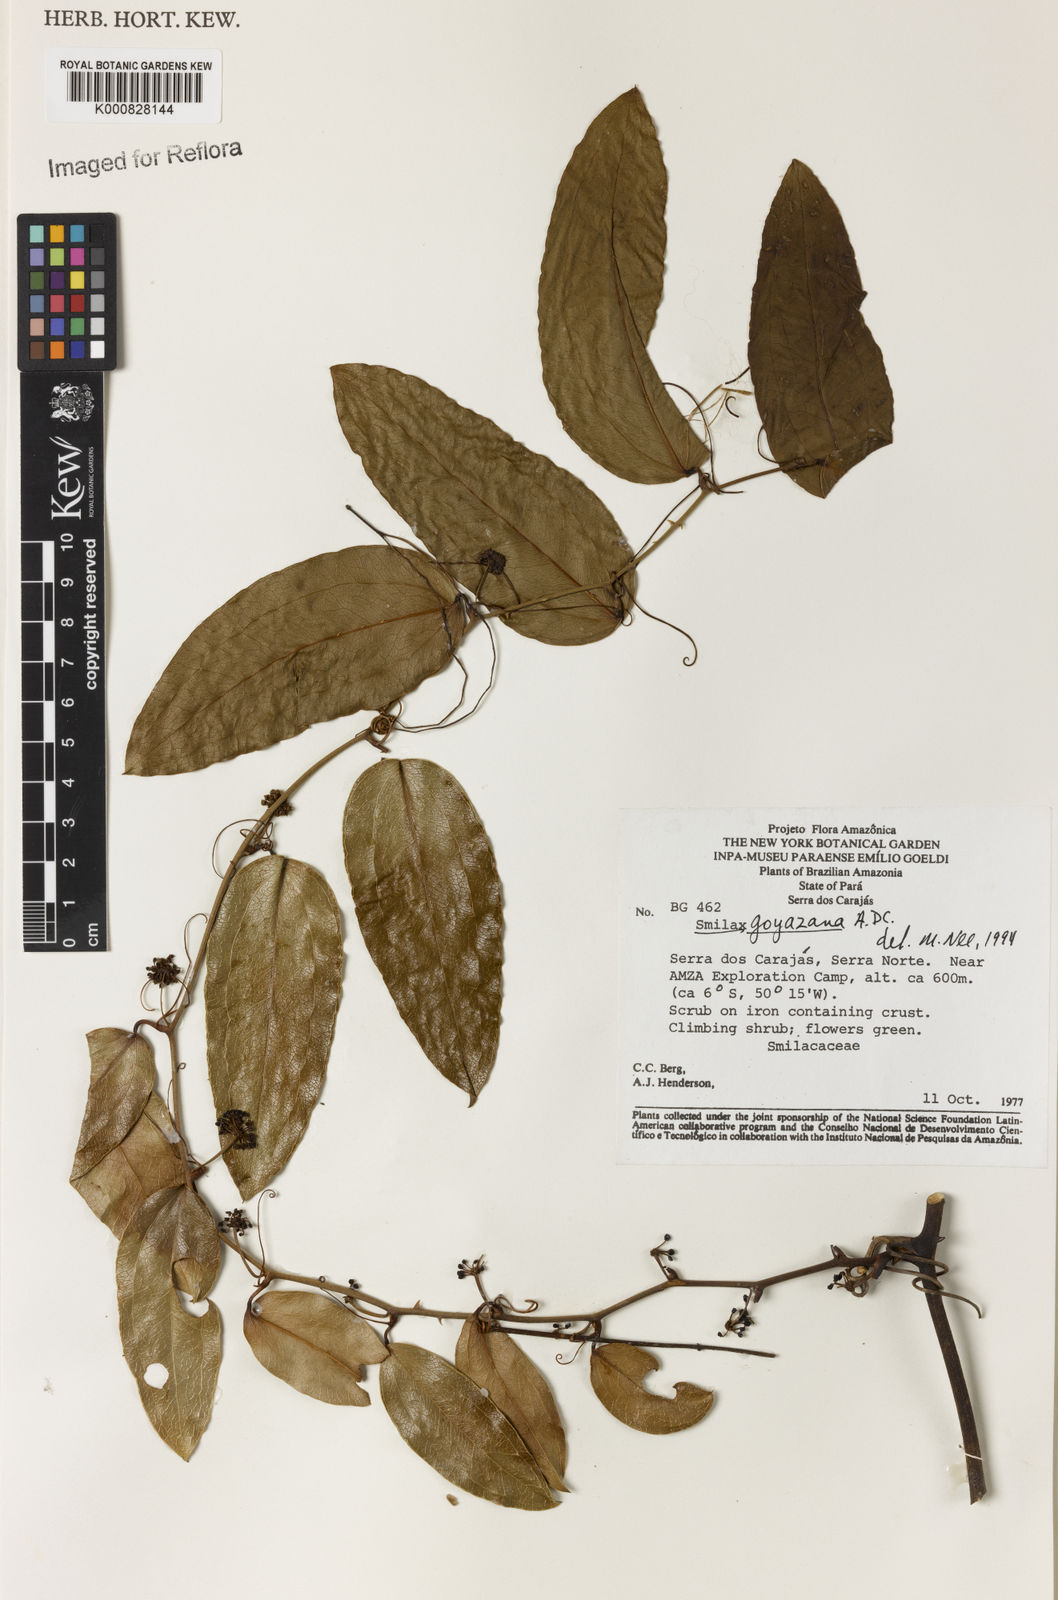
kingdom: Plantae
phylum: Tracheophyta
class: Liliopsida
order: Liliales
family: Smilacaceae
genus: Smilax
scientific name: Smilax goyazana
